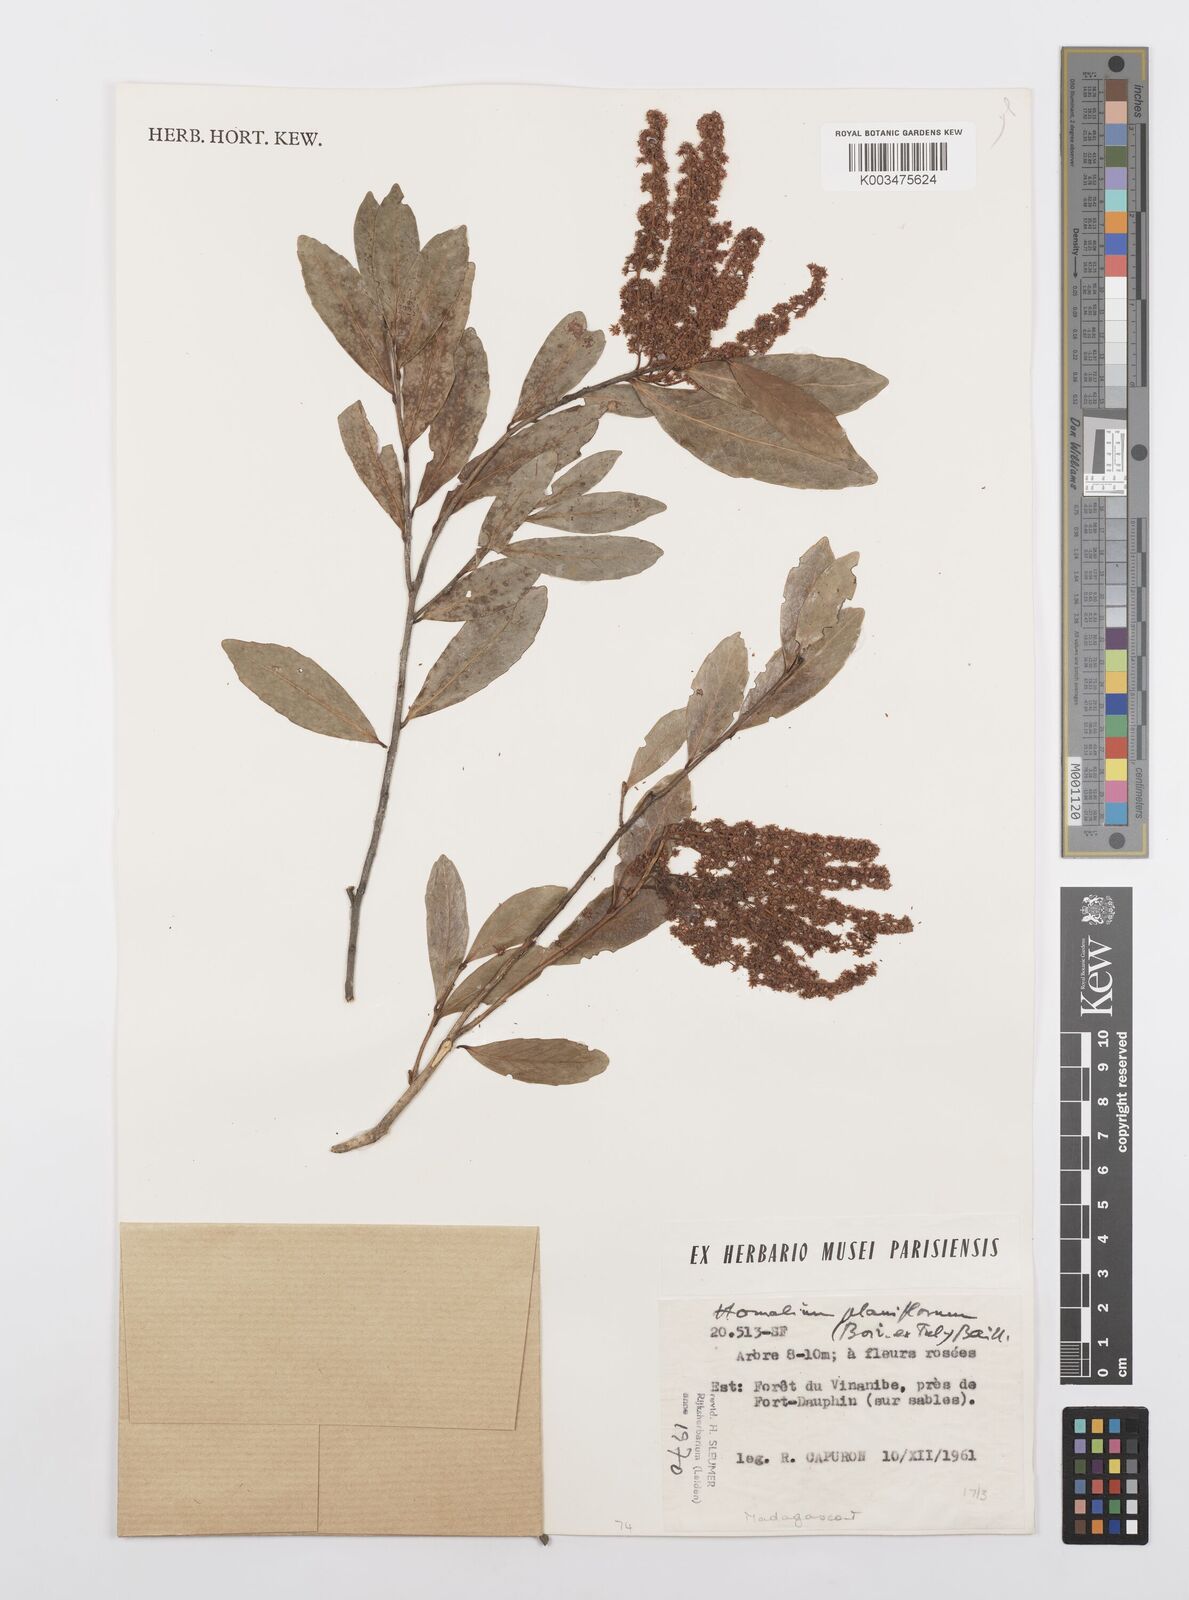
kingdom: Plantae
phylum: Tracheophyta
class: Magnoliopsida
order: Malpighiales
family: Salicaceae
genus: Homalium
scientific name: Homalium planiflorum
